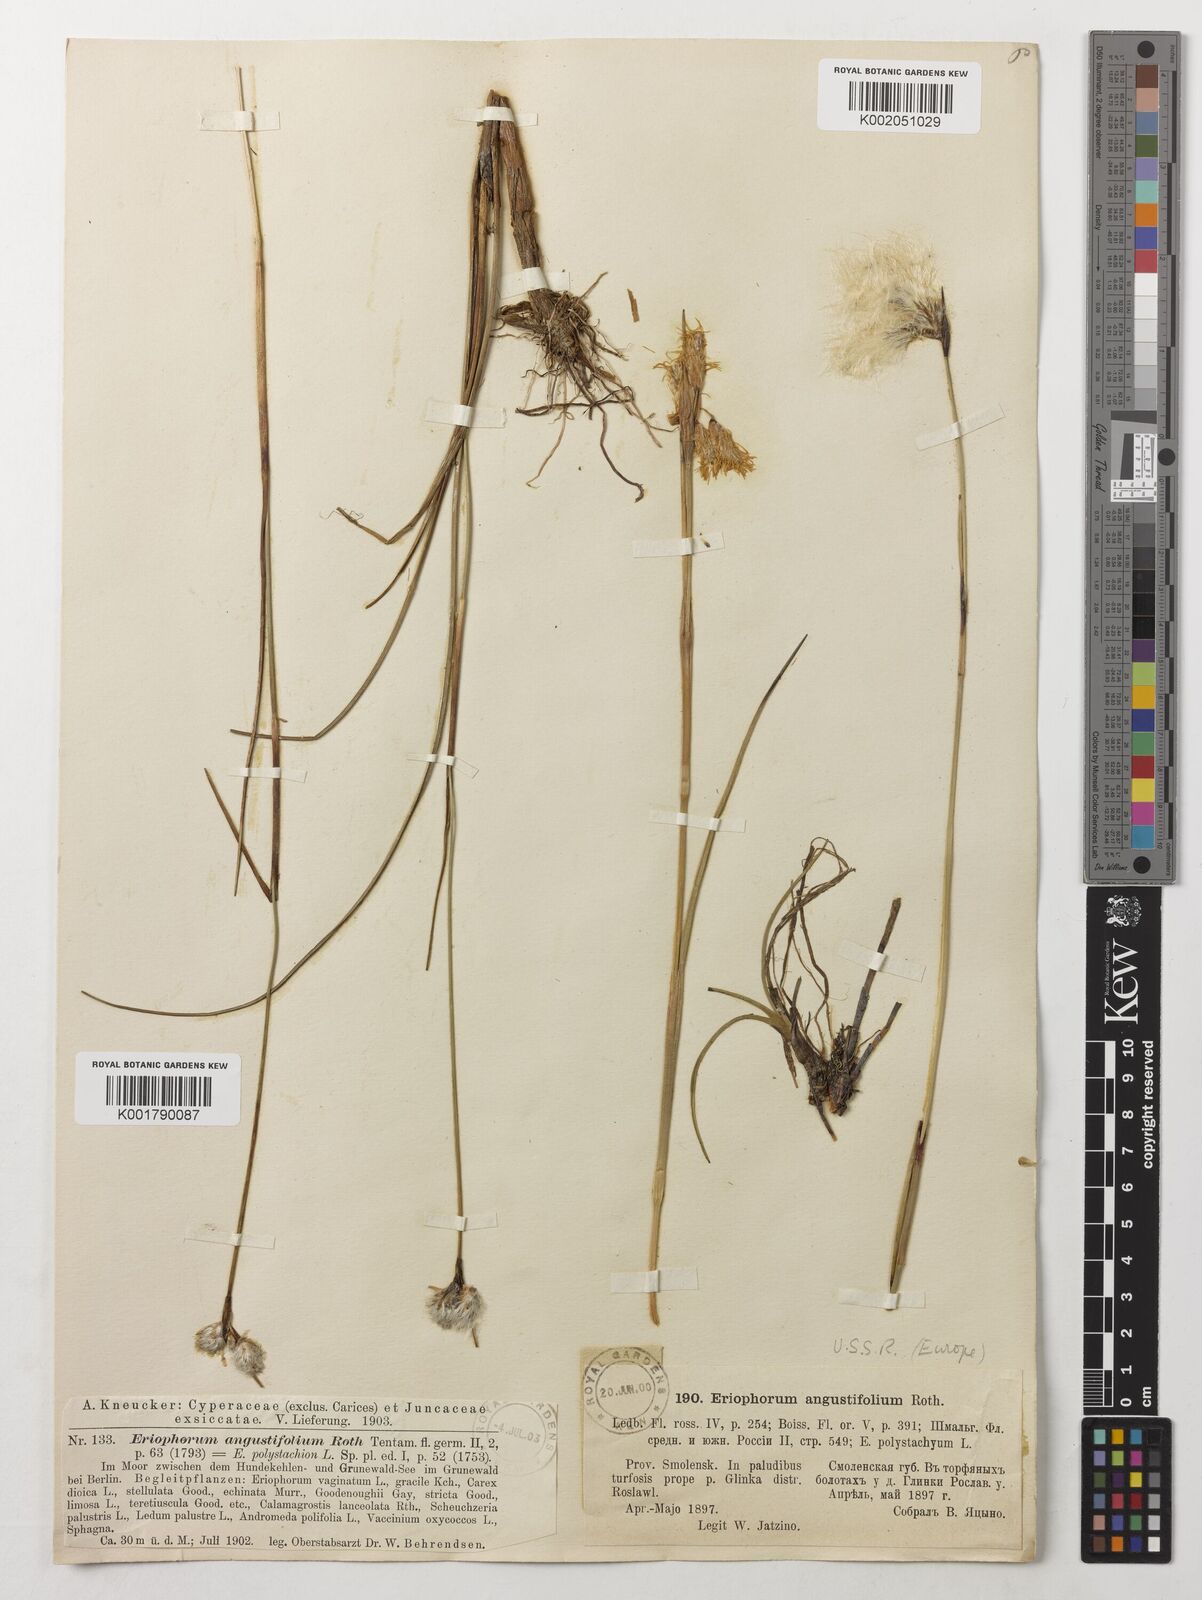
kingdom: Plantae
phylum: Tracheophyta
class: Liliopsida
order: Poales
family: Cyperaceae
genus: Eriophorum
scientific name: Eriophorum angustifolium
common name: Common cottongrass
